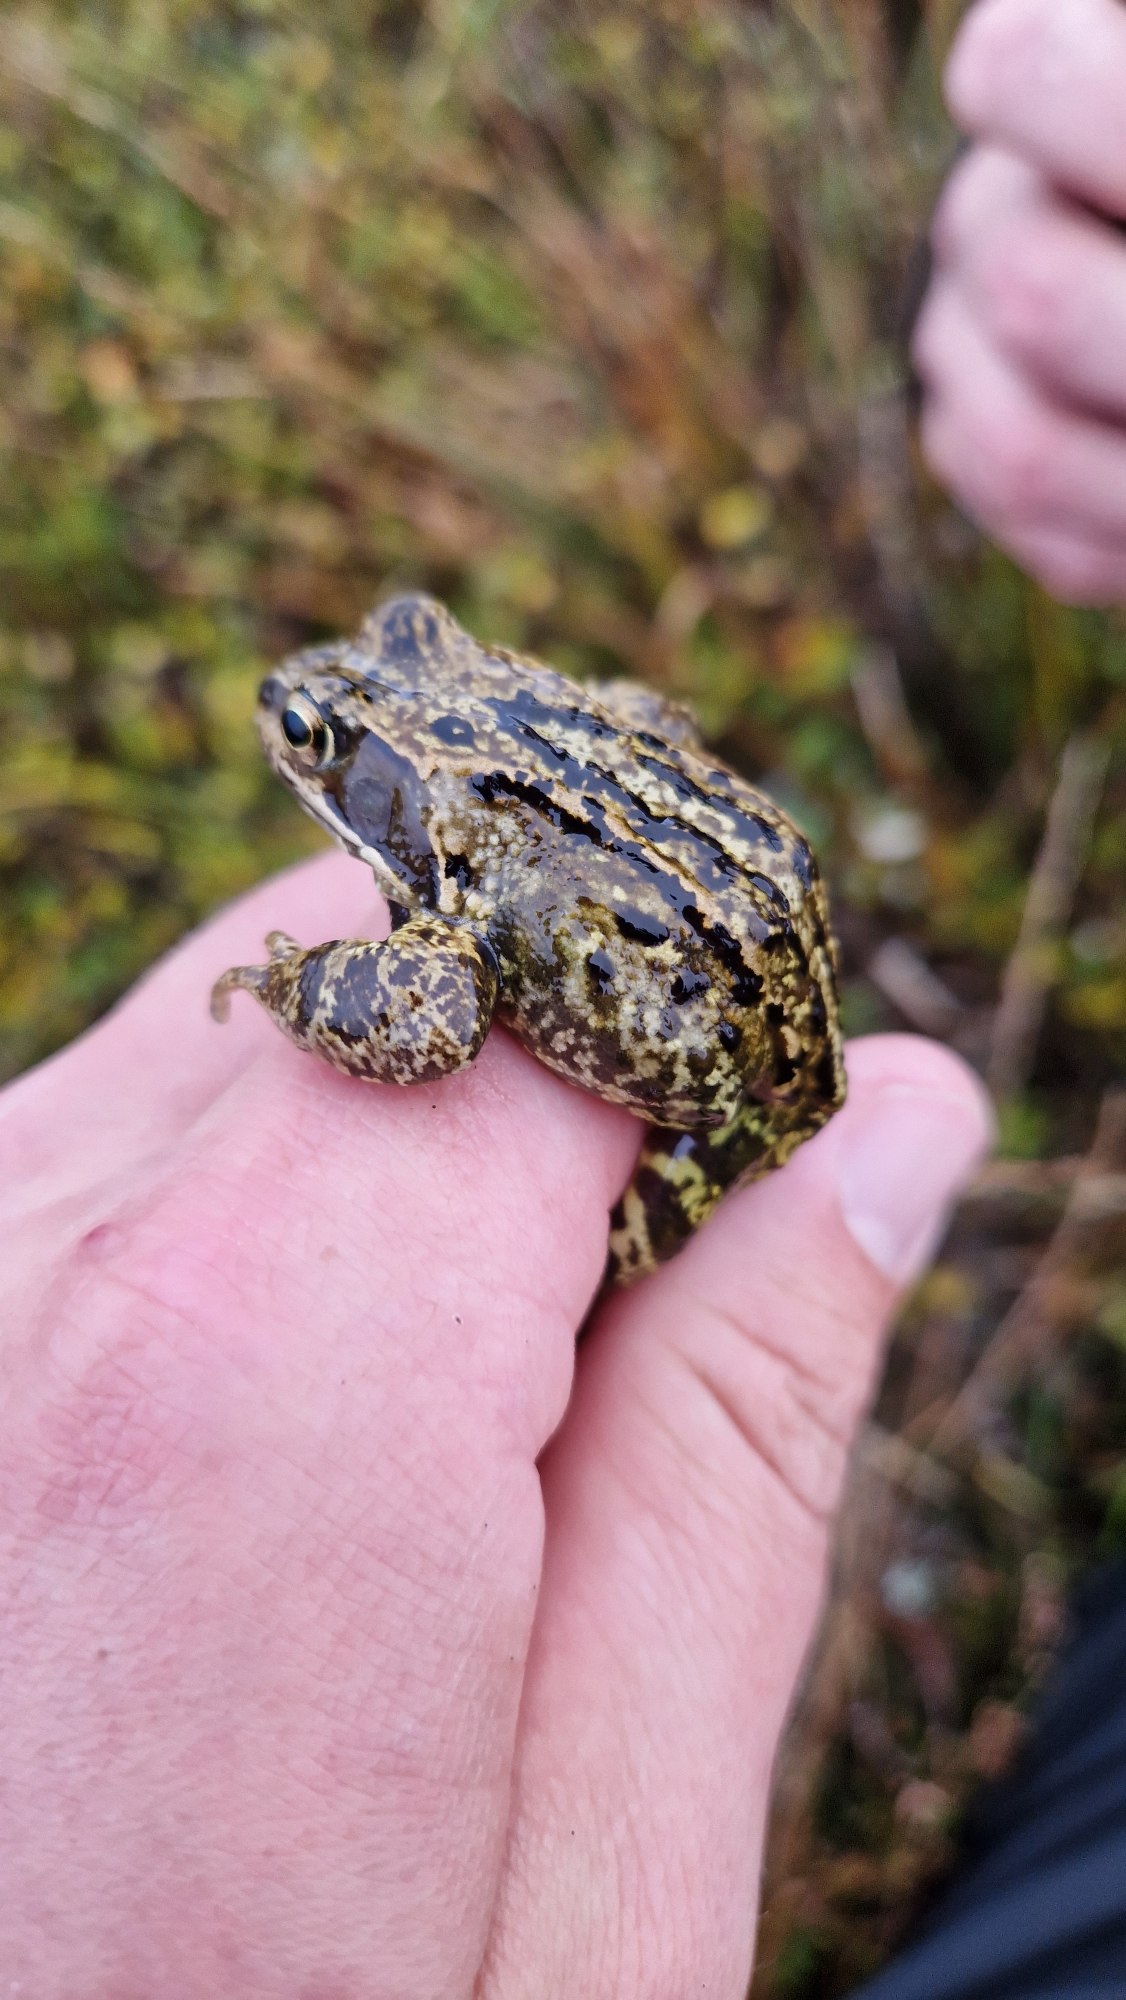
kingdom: Animalia
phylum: Chordata
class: Amphibia
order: Anura
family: Ranidae
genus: Rana
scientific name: Rana temporaria
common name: Butsnudet frø
